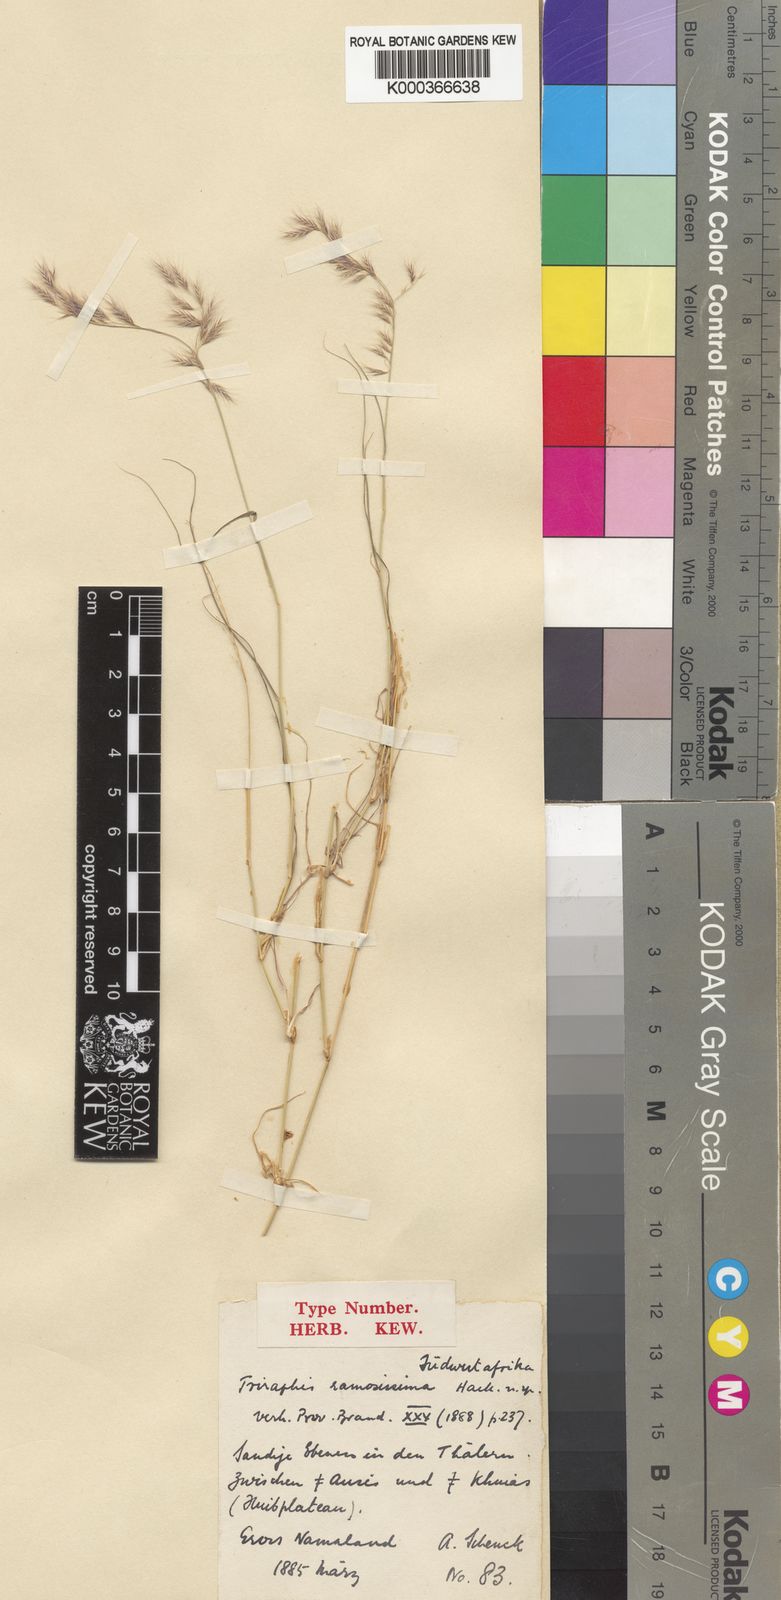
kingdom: Plantae
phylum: Tracheophyta
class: Liliopsida
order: Poales
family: Poaceae
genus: Triraphis
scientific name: Triraphis
